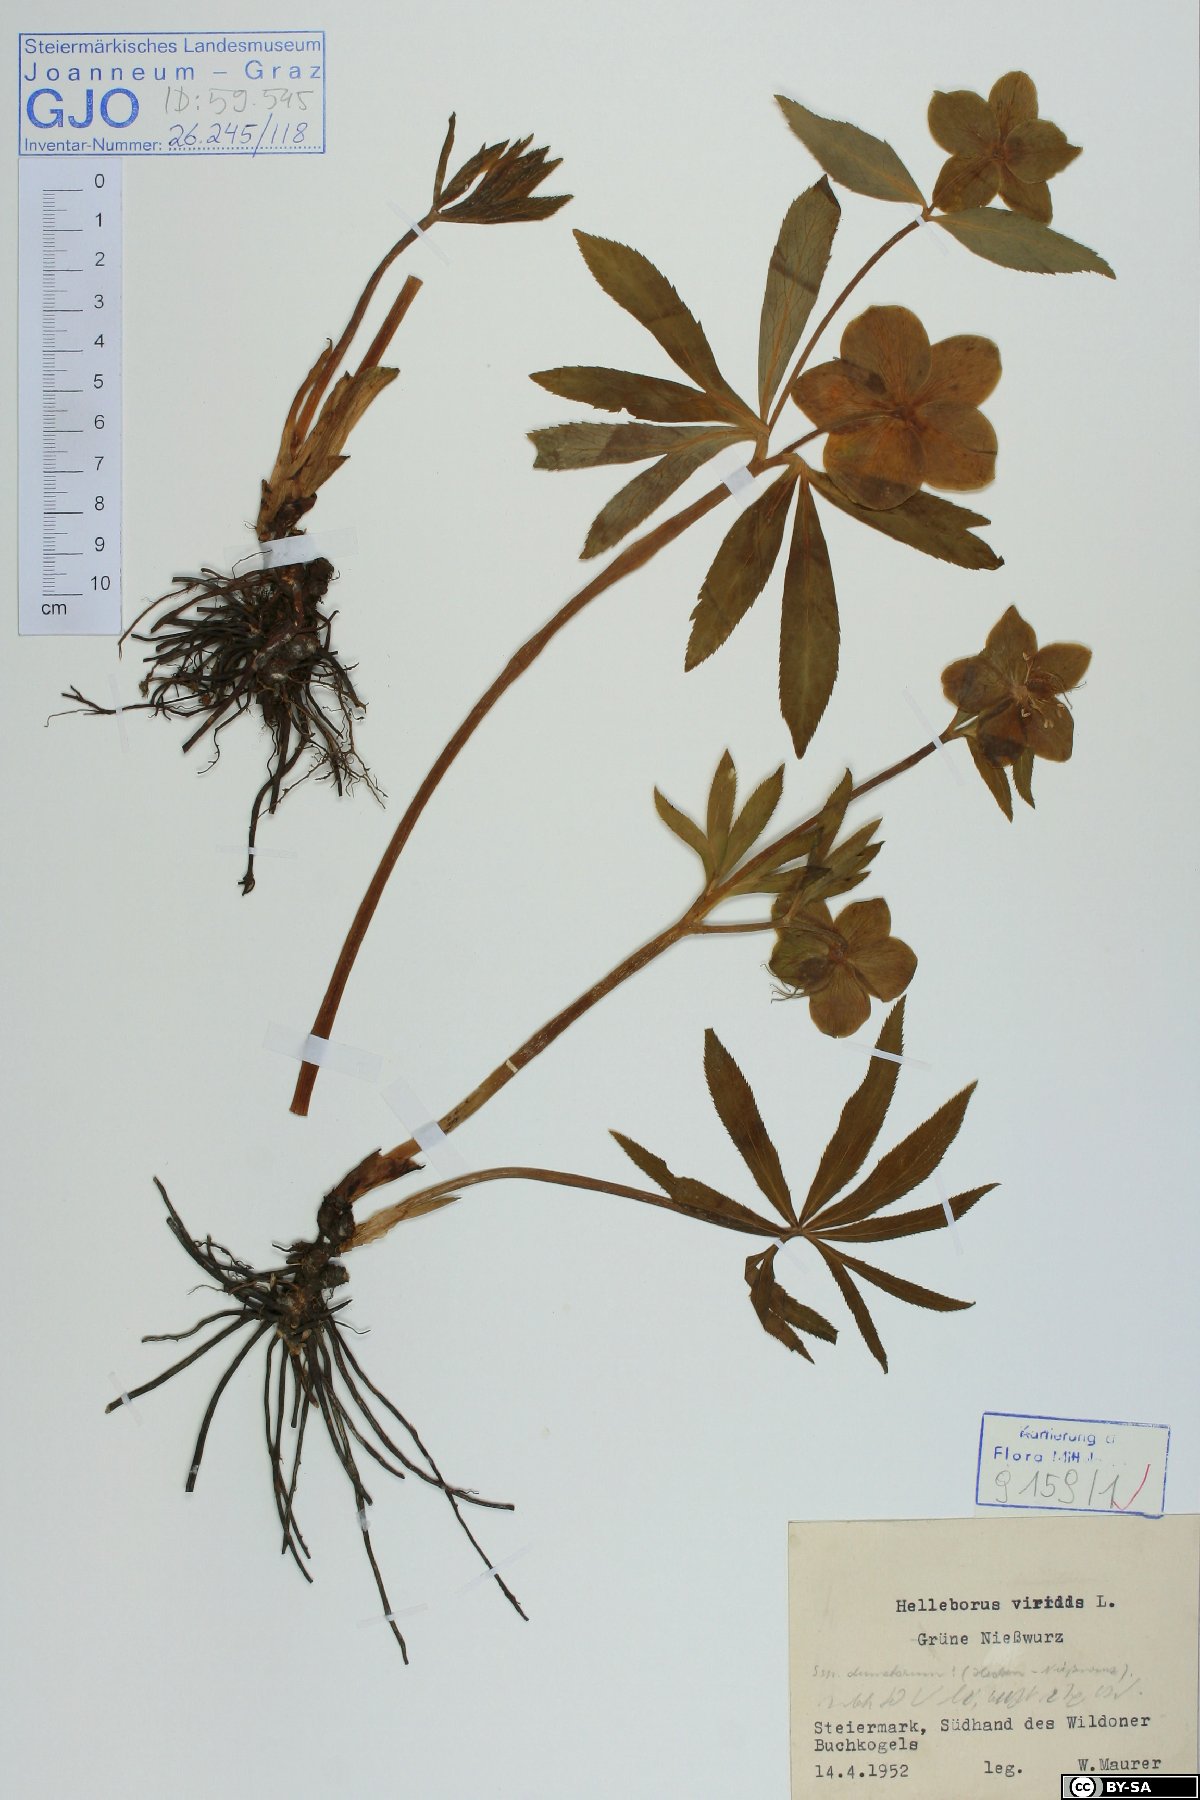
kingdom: Plantae
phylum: Tracheophyta
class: Magnoliopsida
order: Ranunculales
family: Ranunculaceae
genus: Helleborus
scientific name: Helleborus viridis
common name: Green hellebore
